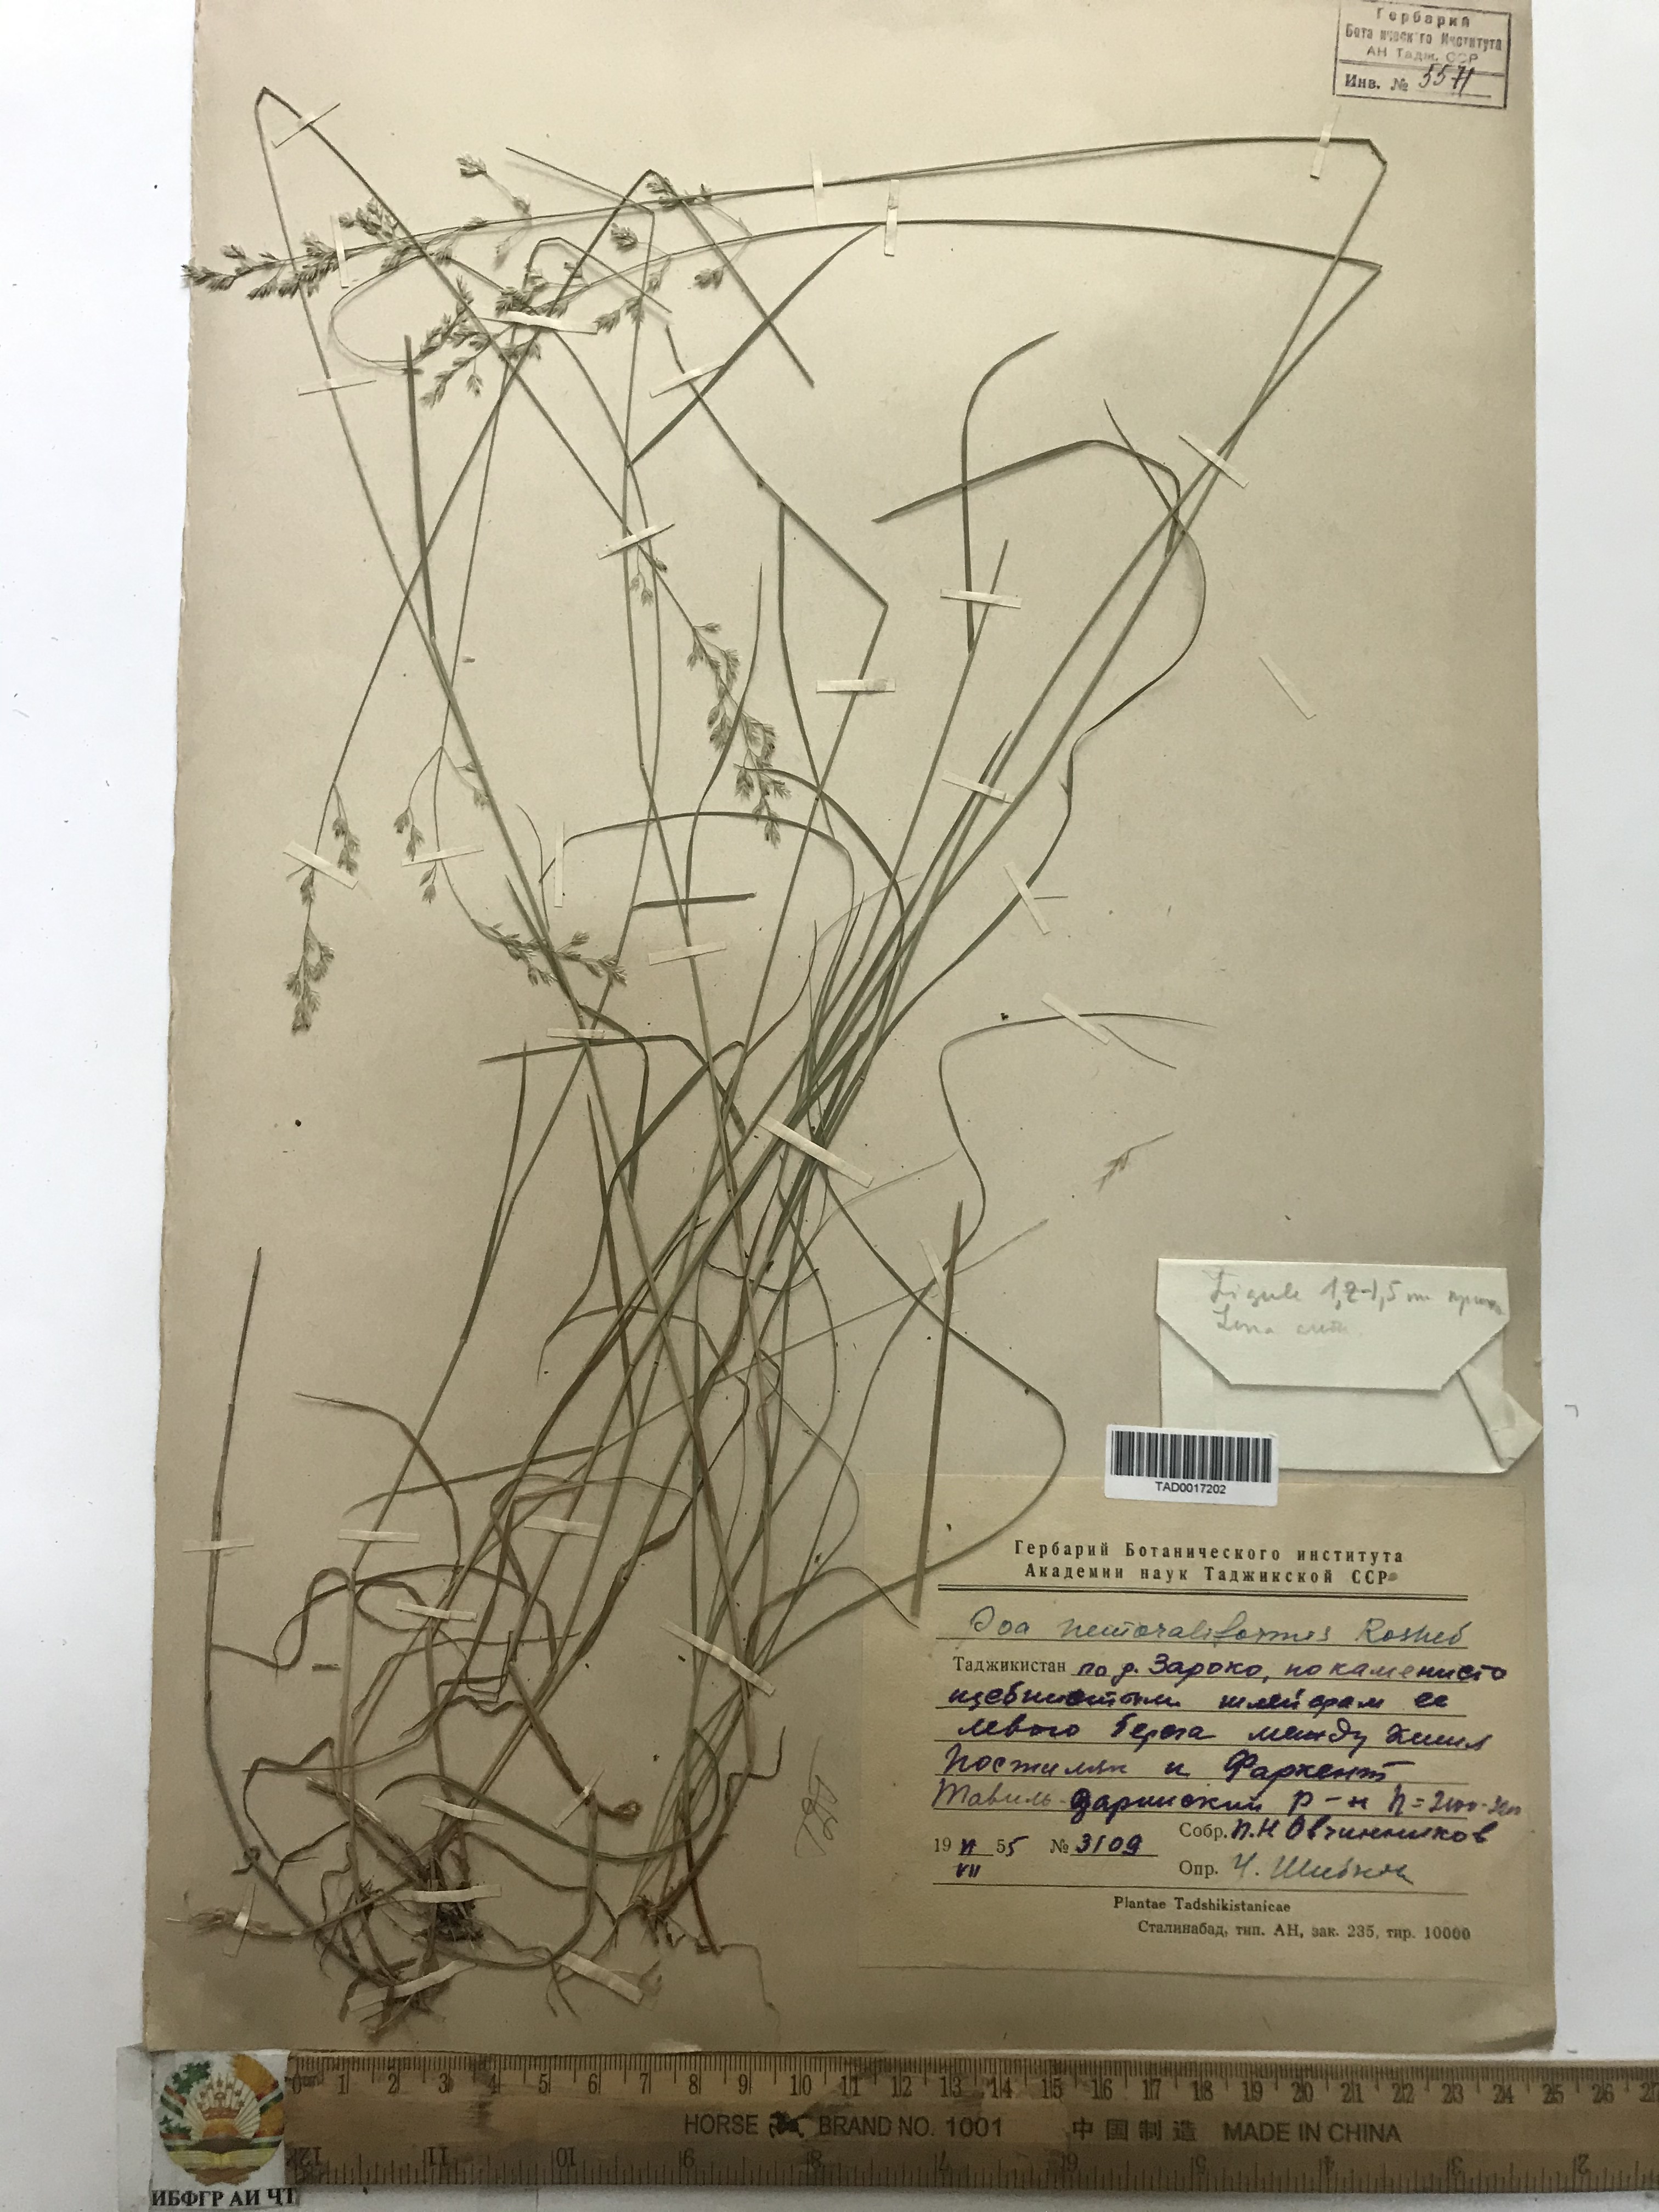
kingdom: Plantae
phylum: Tracheophyta
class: Liliopsida
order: Poales
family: Poaceae
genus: Poa
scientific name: Poa urssulensis
